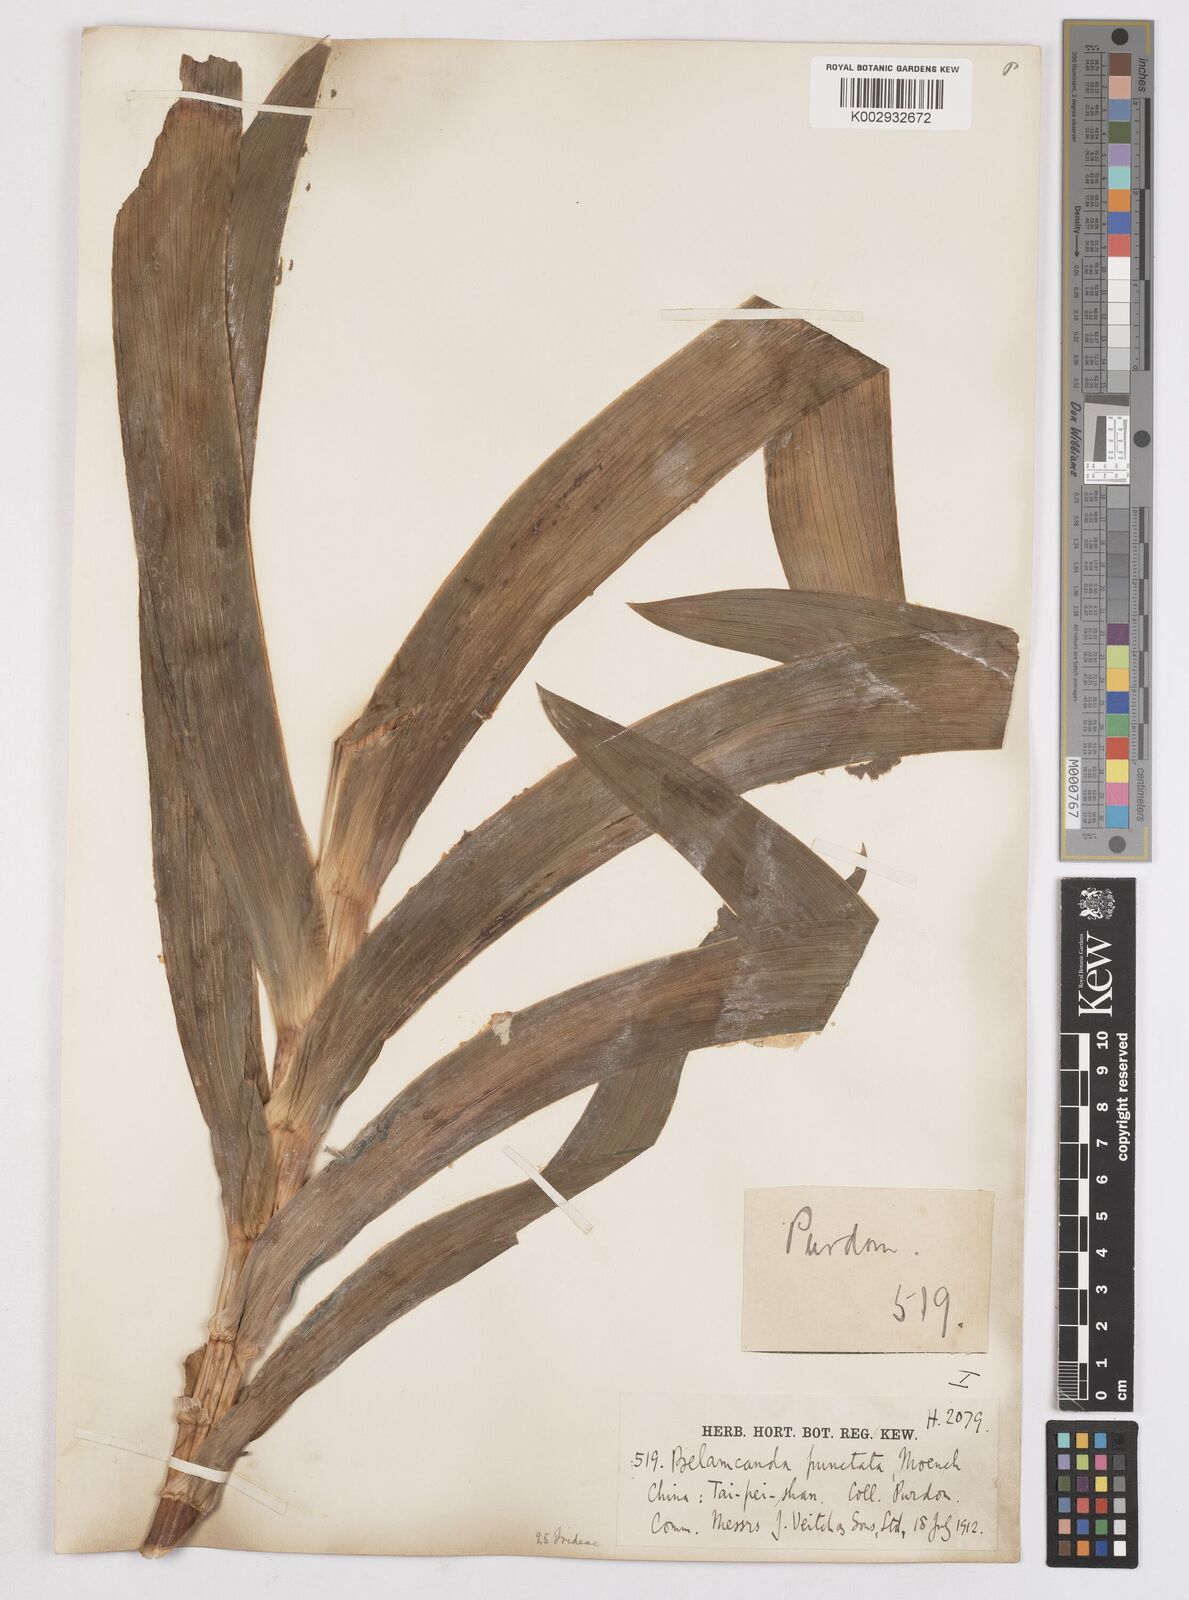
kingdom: Plantae
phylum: Tracheophyta
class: Liliopsida
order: Asparagales
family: Iridaceae
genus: Iris
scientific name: Iris
